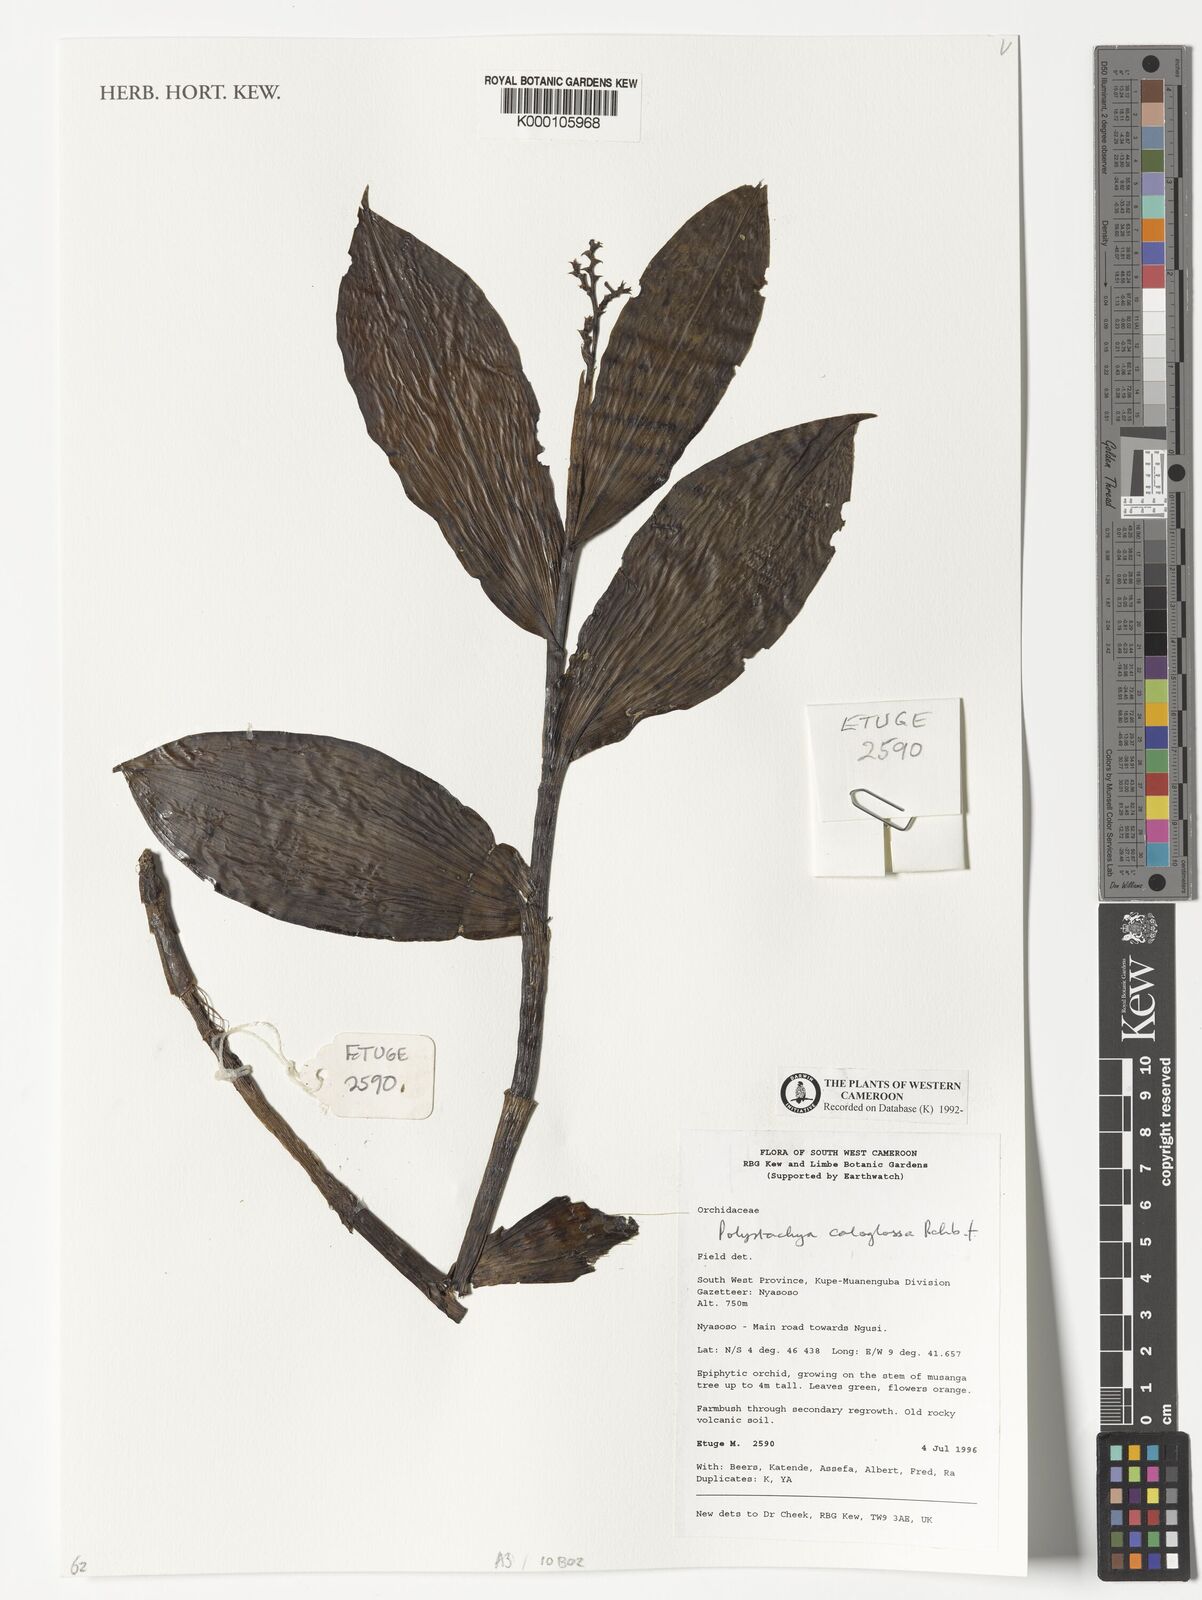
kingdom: Plantae
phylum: Tracheophyta
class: Liliopsida
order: Asparagales
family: Orchidaceae
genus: Polystachya
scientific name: Polystachya caloglossa
